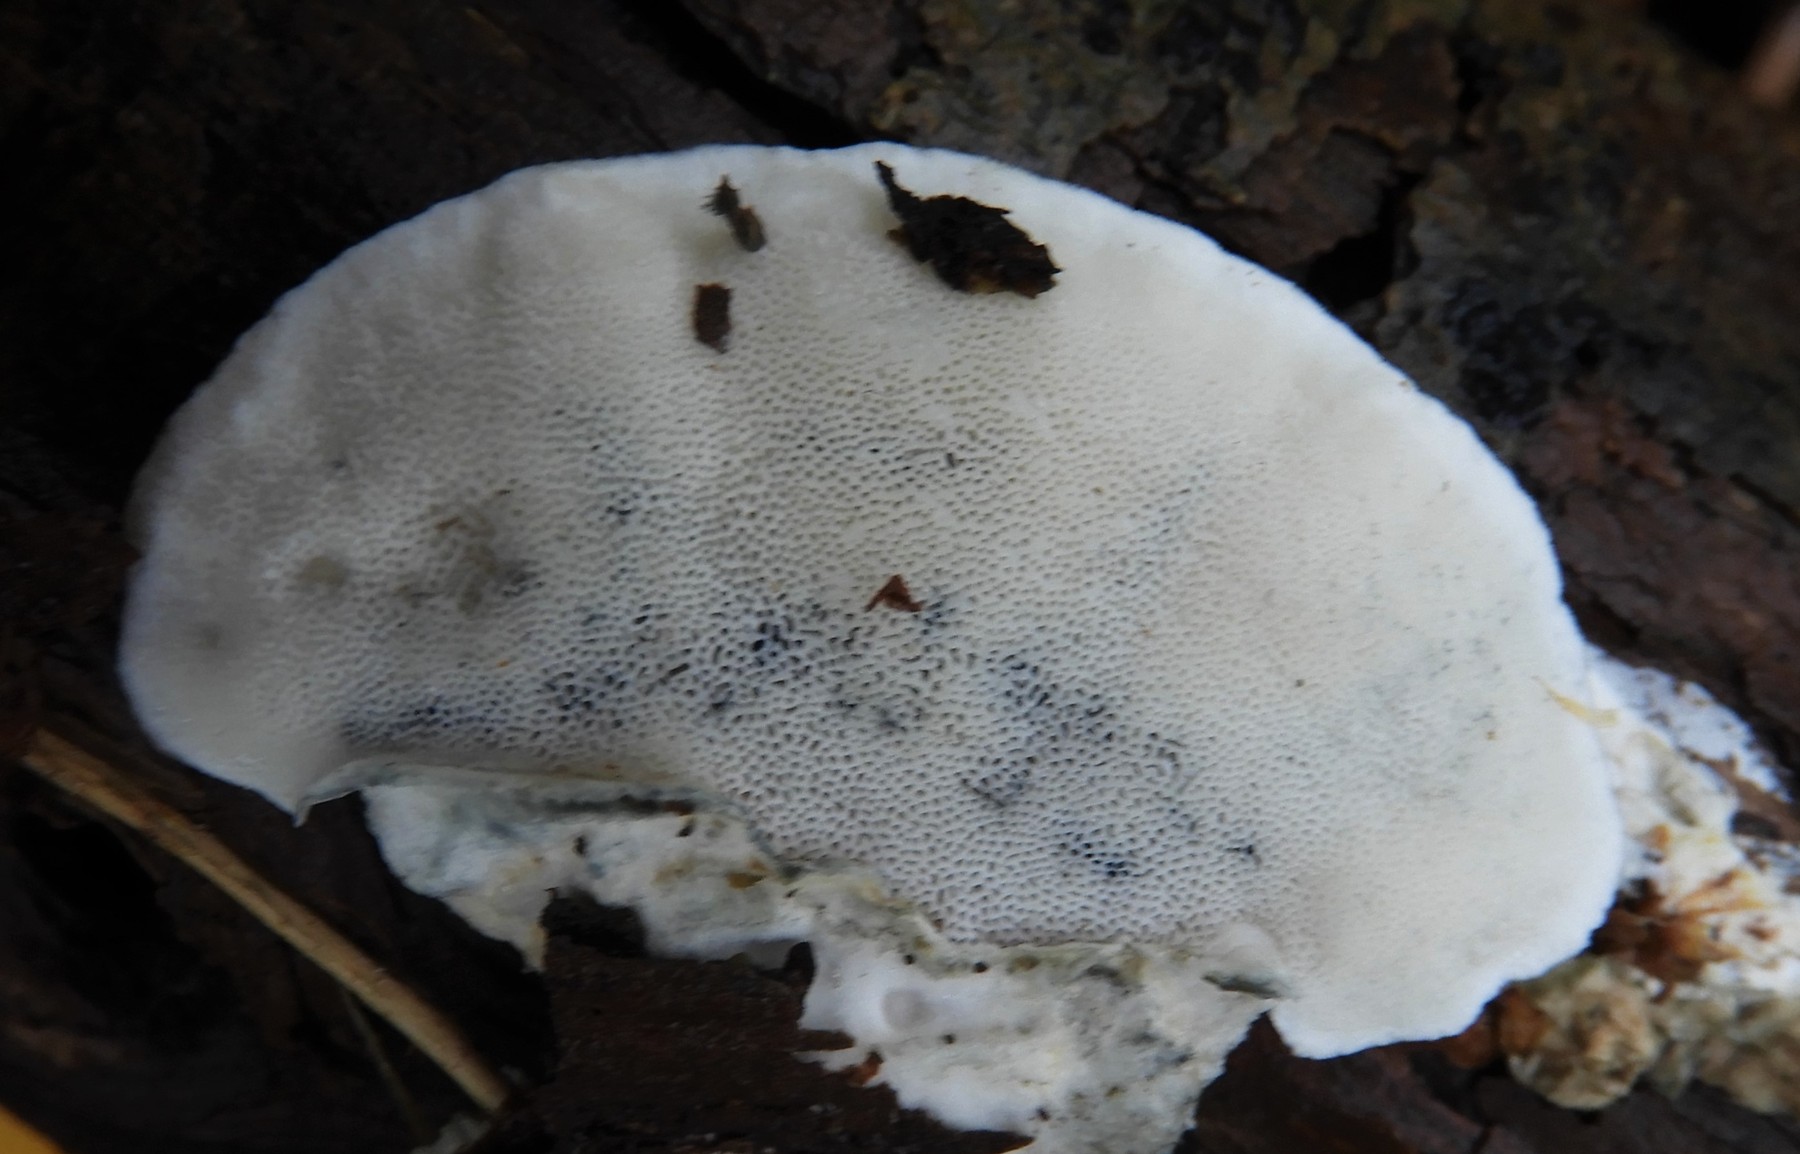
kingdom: Fungi
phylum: Basidiomycota
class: Agaricomycetes
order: Polyporales
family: Polyporaceae
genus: Cyanosporus
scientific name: Cyanosporus caesius
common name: blålig kødporesvamp
